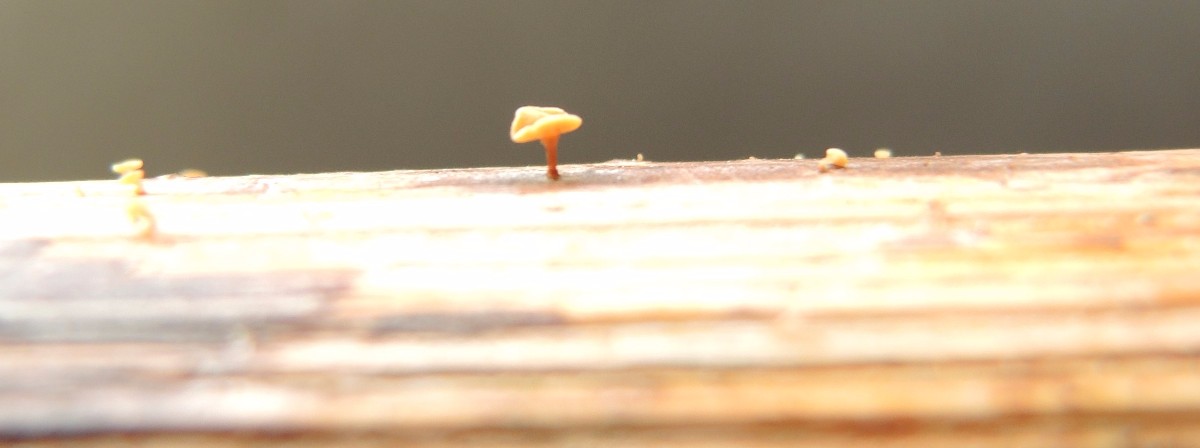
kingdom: Fungi
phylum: Ascomycota
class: Leotiomycetes
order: Helotiales
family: Helotiaceae
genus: Hymenoscyphus
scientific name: Hymenoscyphus scutula
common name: almindelig stilkskive
